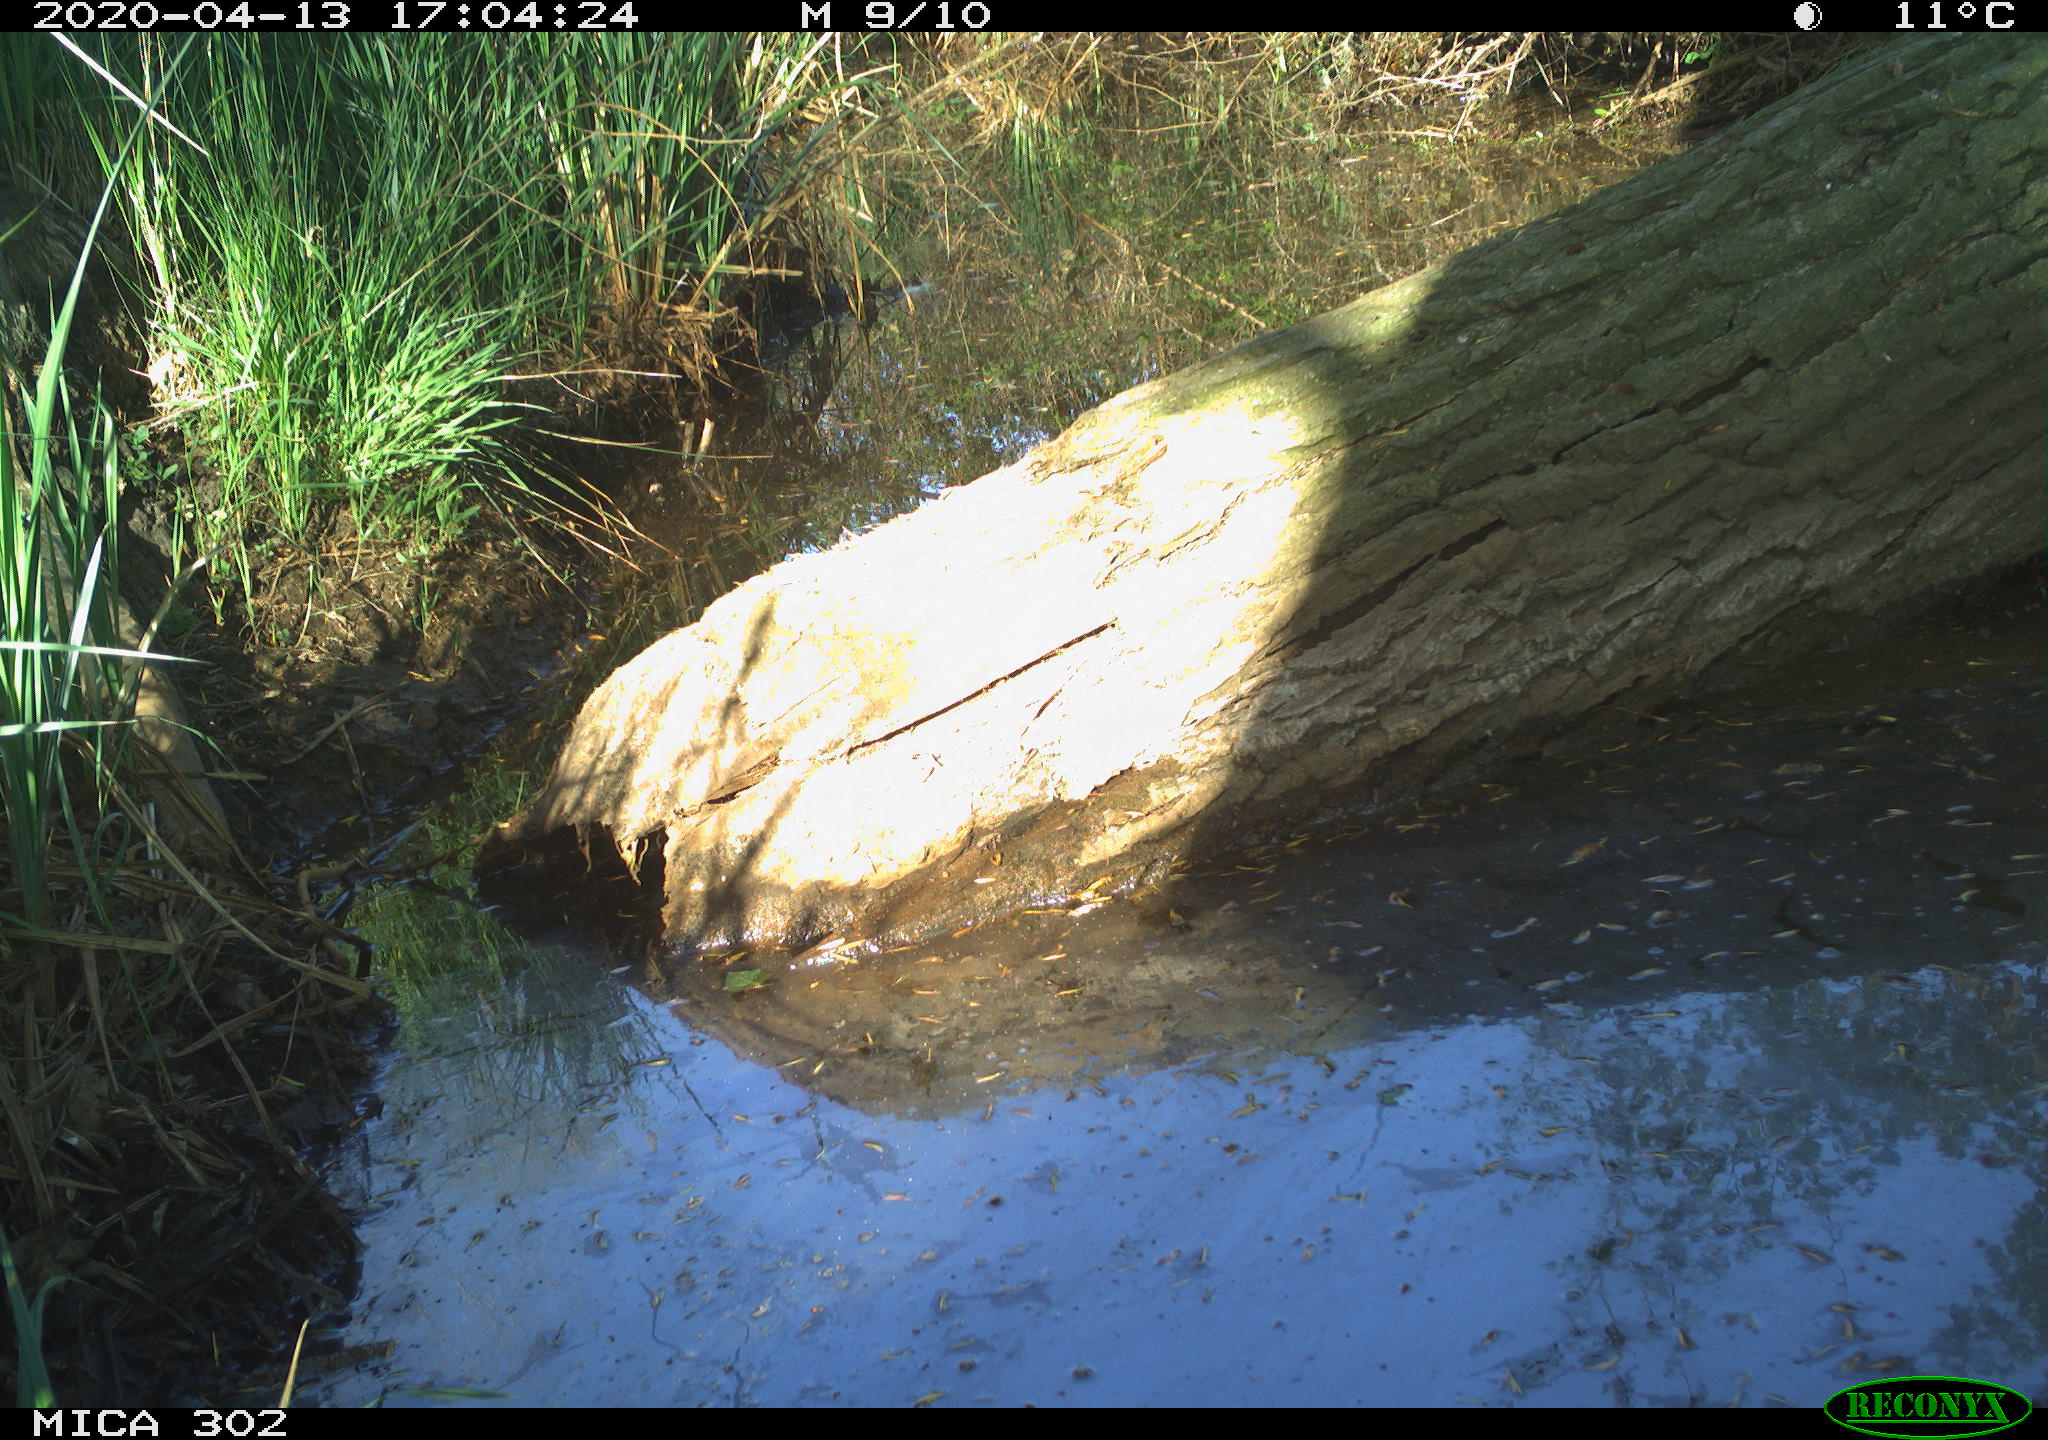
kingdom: Animalia
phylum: Chordata
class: Aves
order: Passeriformes
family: Muscicapidae
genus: Erithacus
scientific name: Erithacus rubecula
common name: European robin
